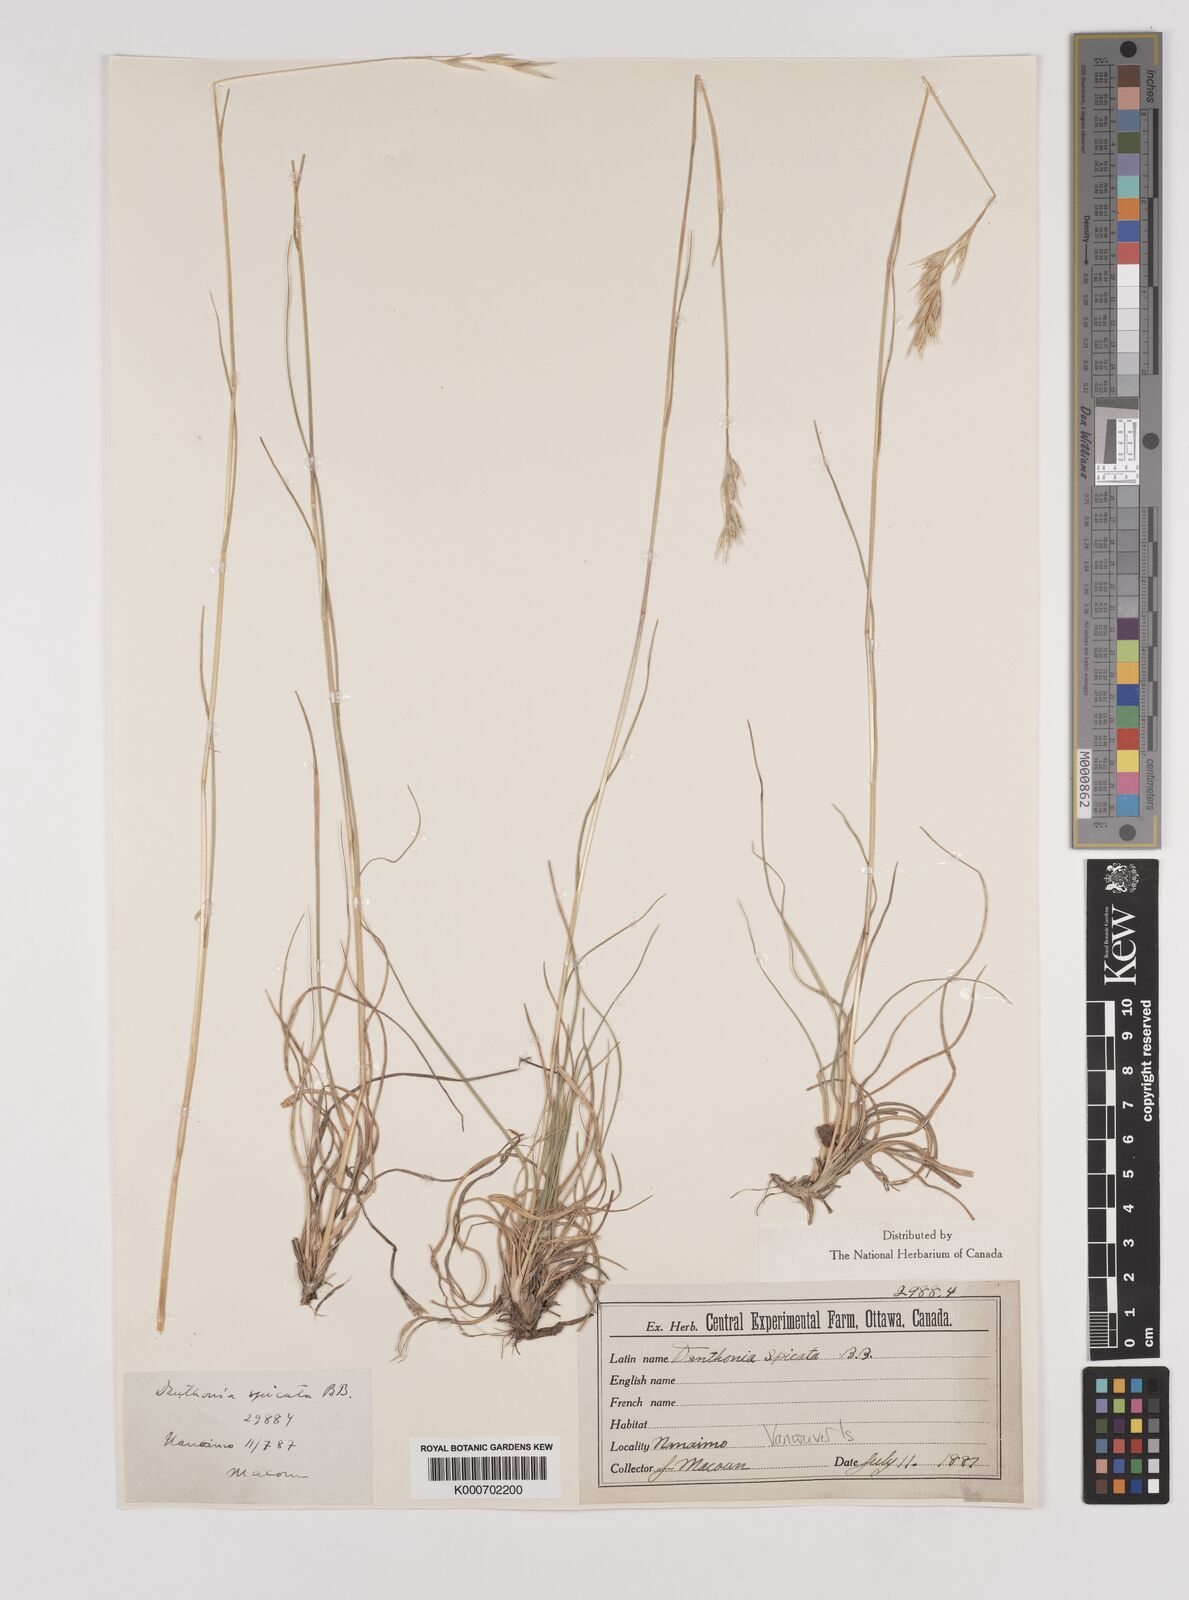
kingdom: Plantae
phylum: Tracheophyta
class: Liliopsida
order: Poales
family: Poaceae
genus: Danthonia
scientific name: Danthonia spicata
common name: Common wild oatgrass
